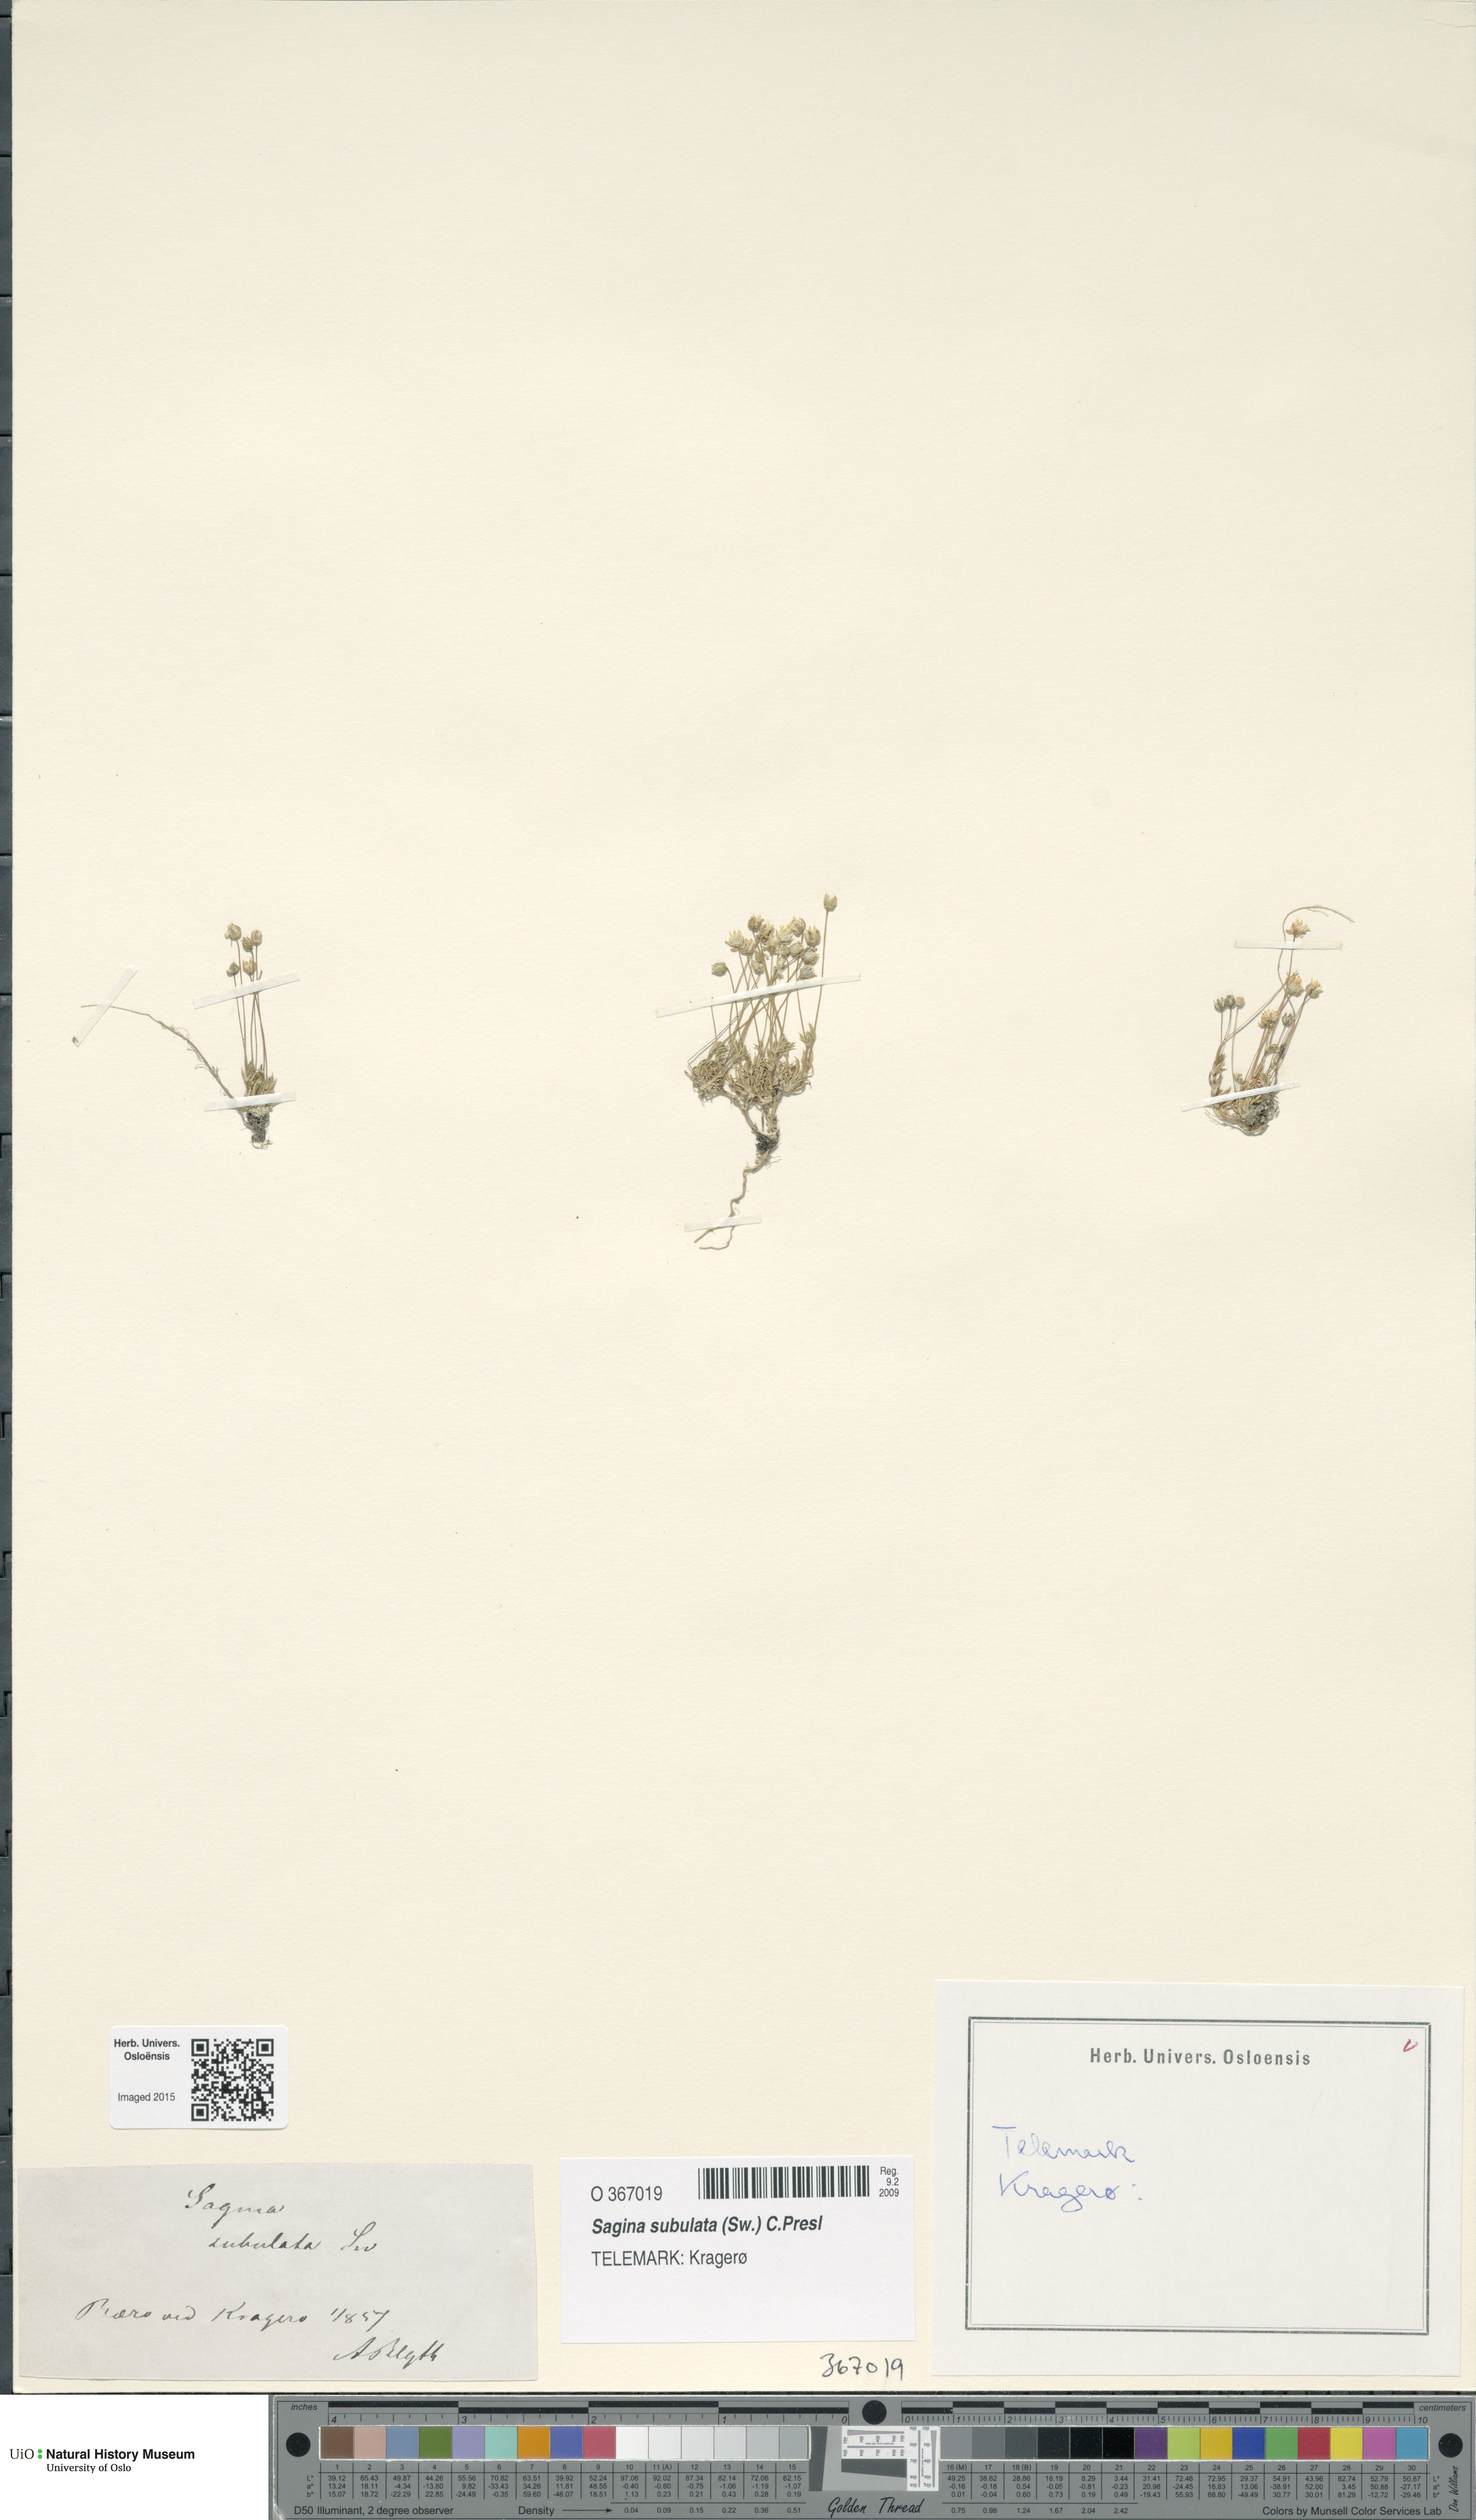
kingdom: Plantae
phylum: Tracheophyta
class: Magnoliopsida
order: Caryophyllales
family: Caryophyllaceae
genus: Sagina
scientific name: Sagina alexandrae
